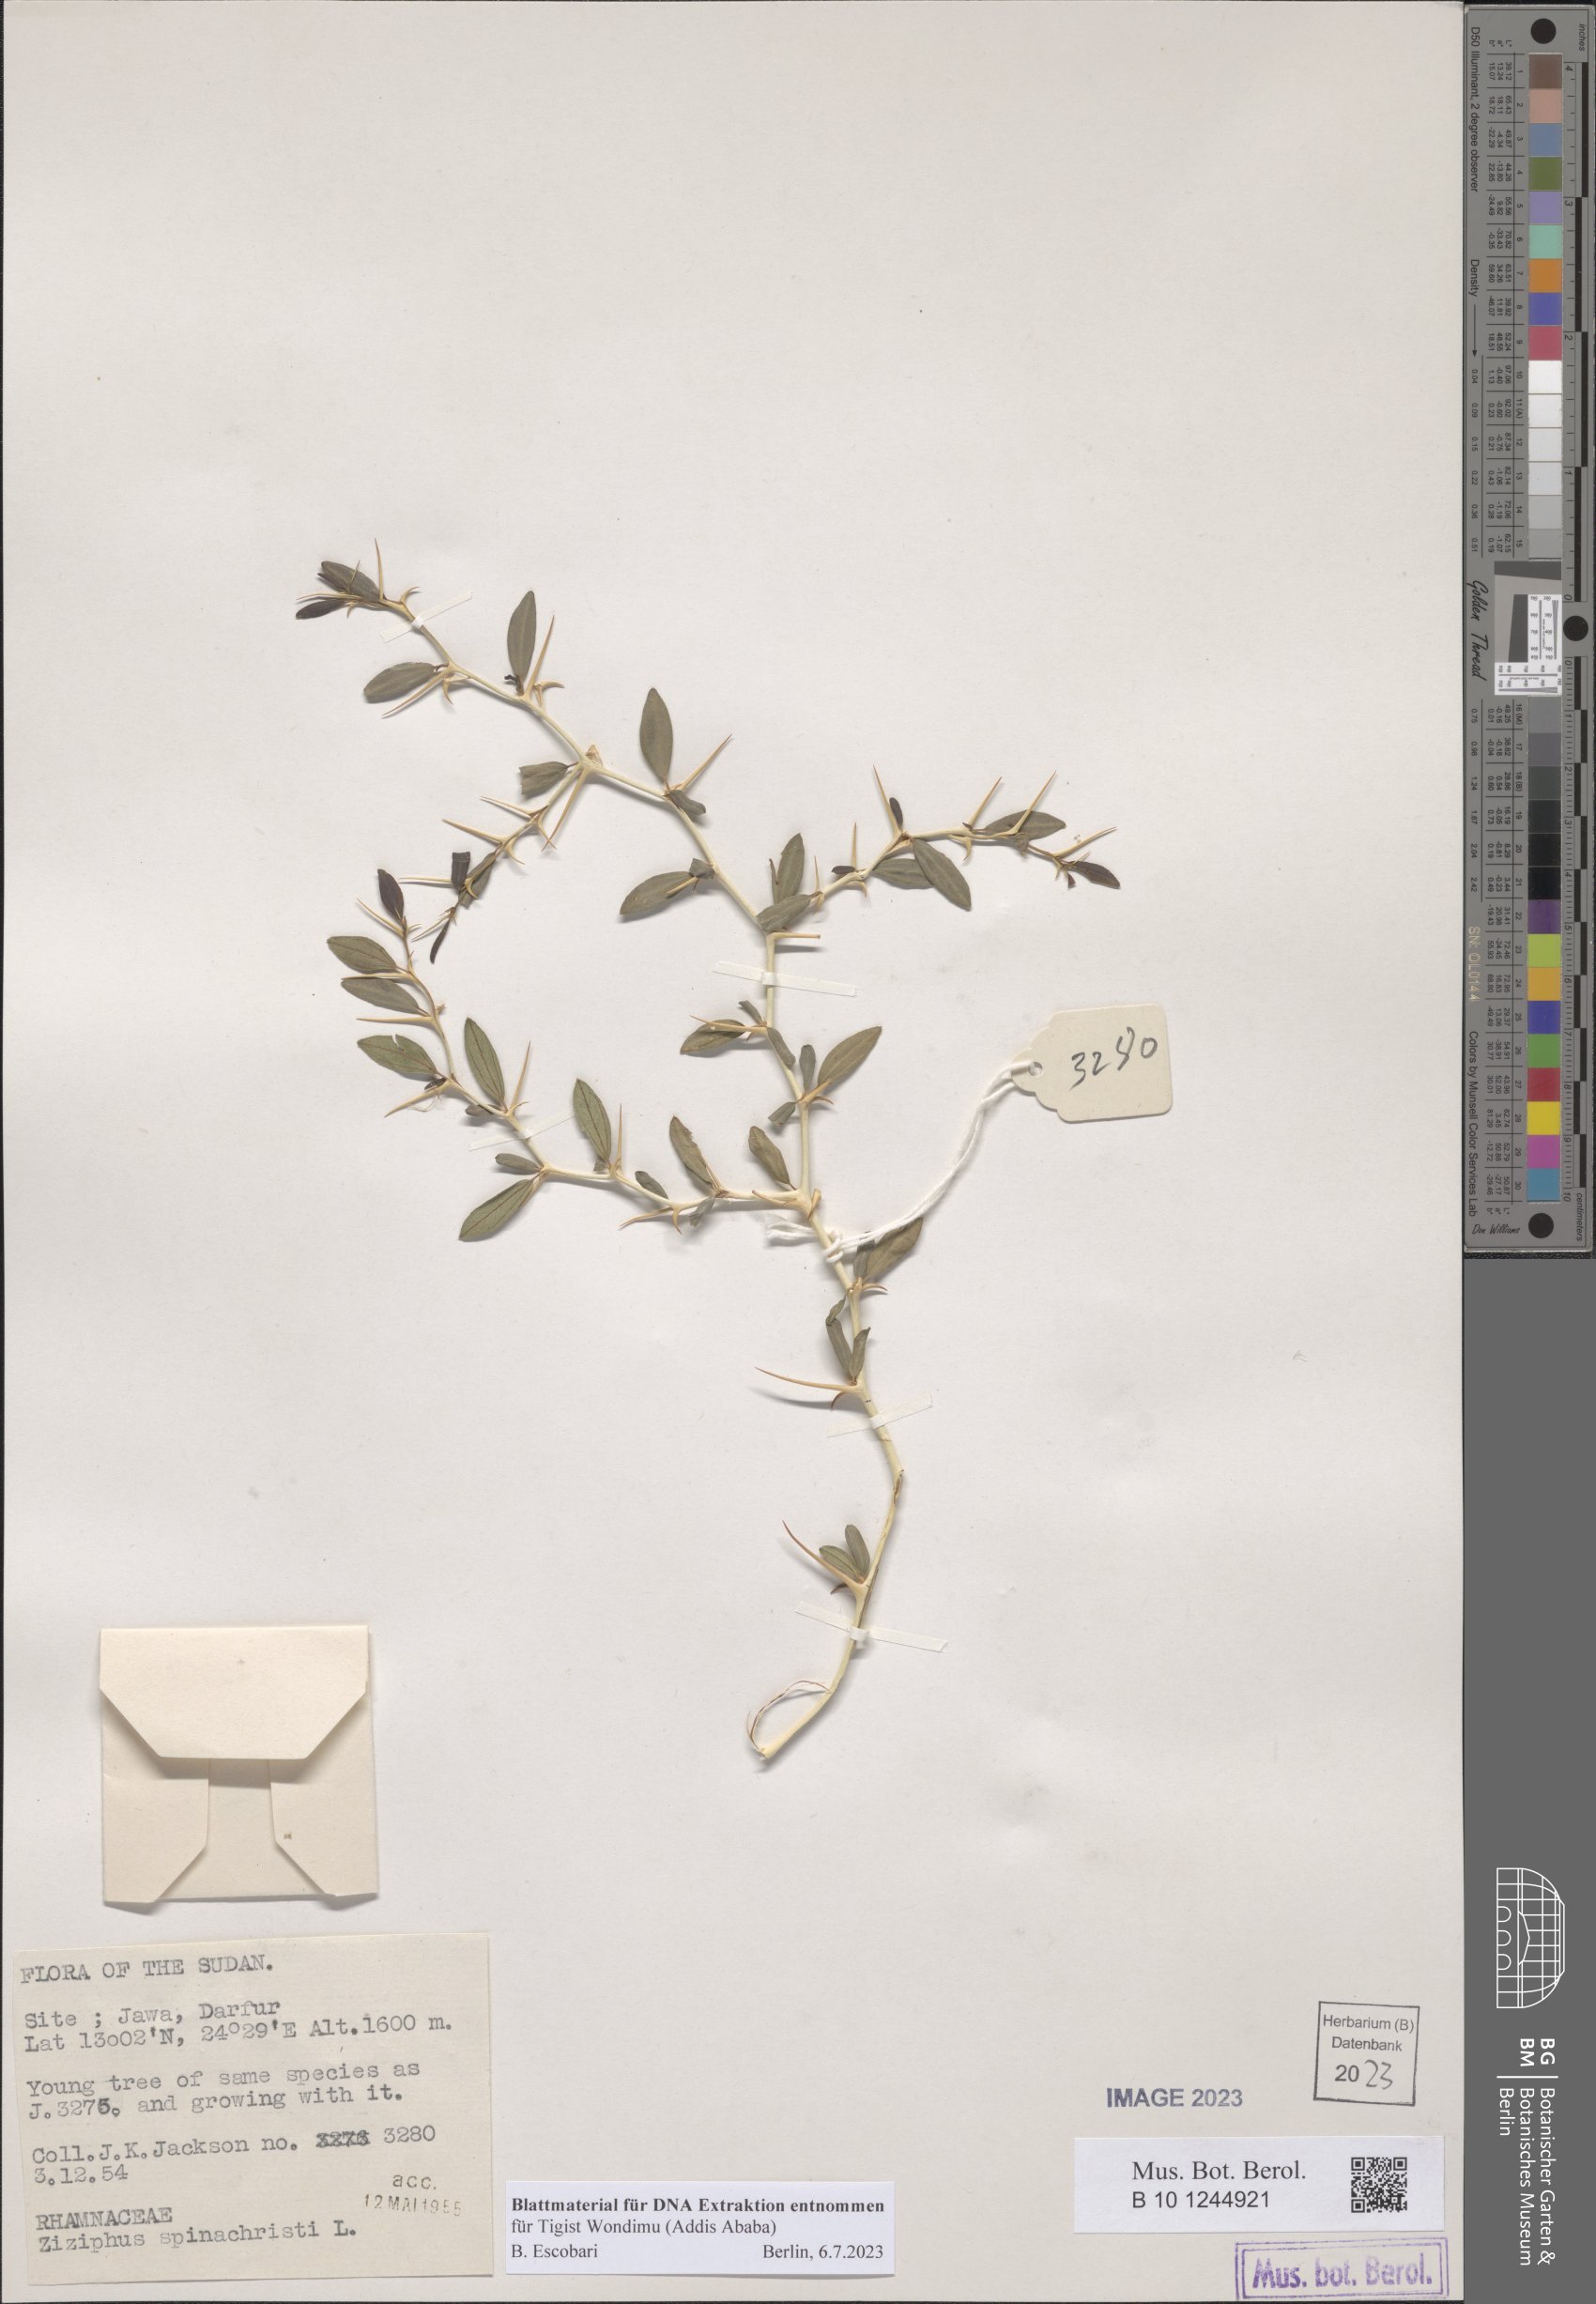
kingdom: Plantae
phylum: Tracheophyta
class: Magnoliopsida
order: Rosales
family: Rhamnaceae
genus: Ziziphus
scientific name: Ziziphus spina-christi
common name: Syrian christ-thorn
